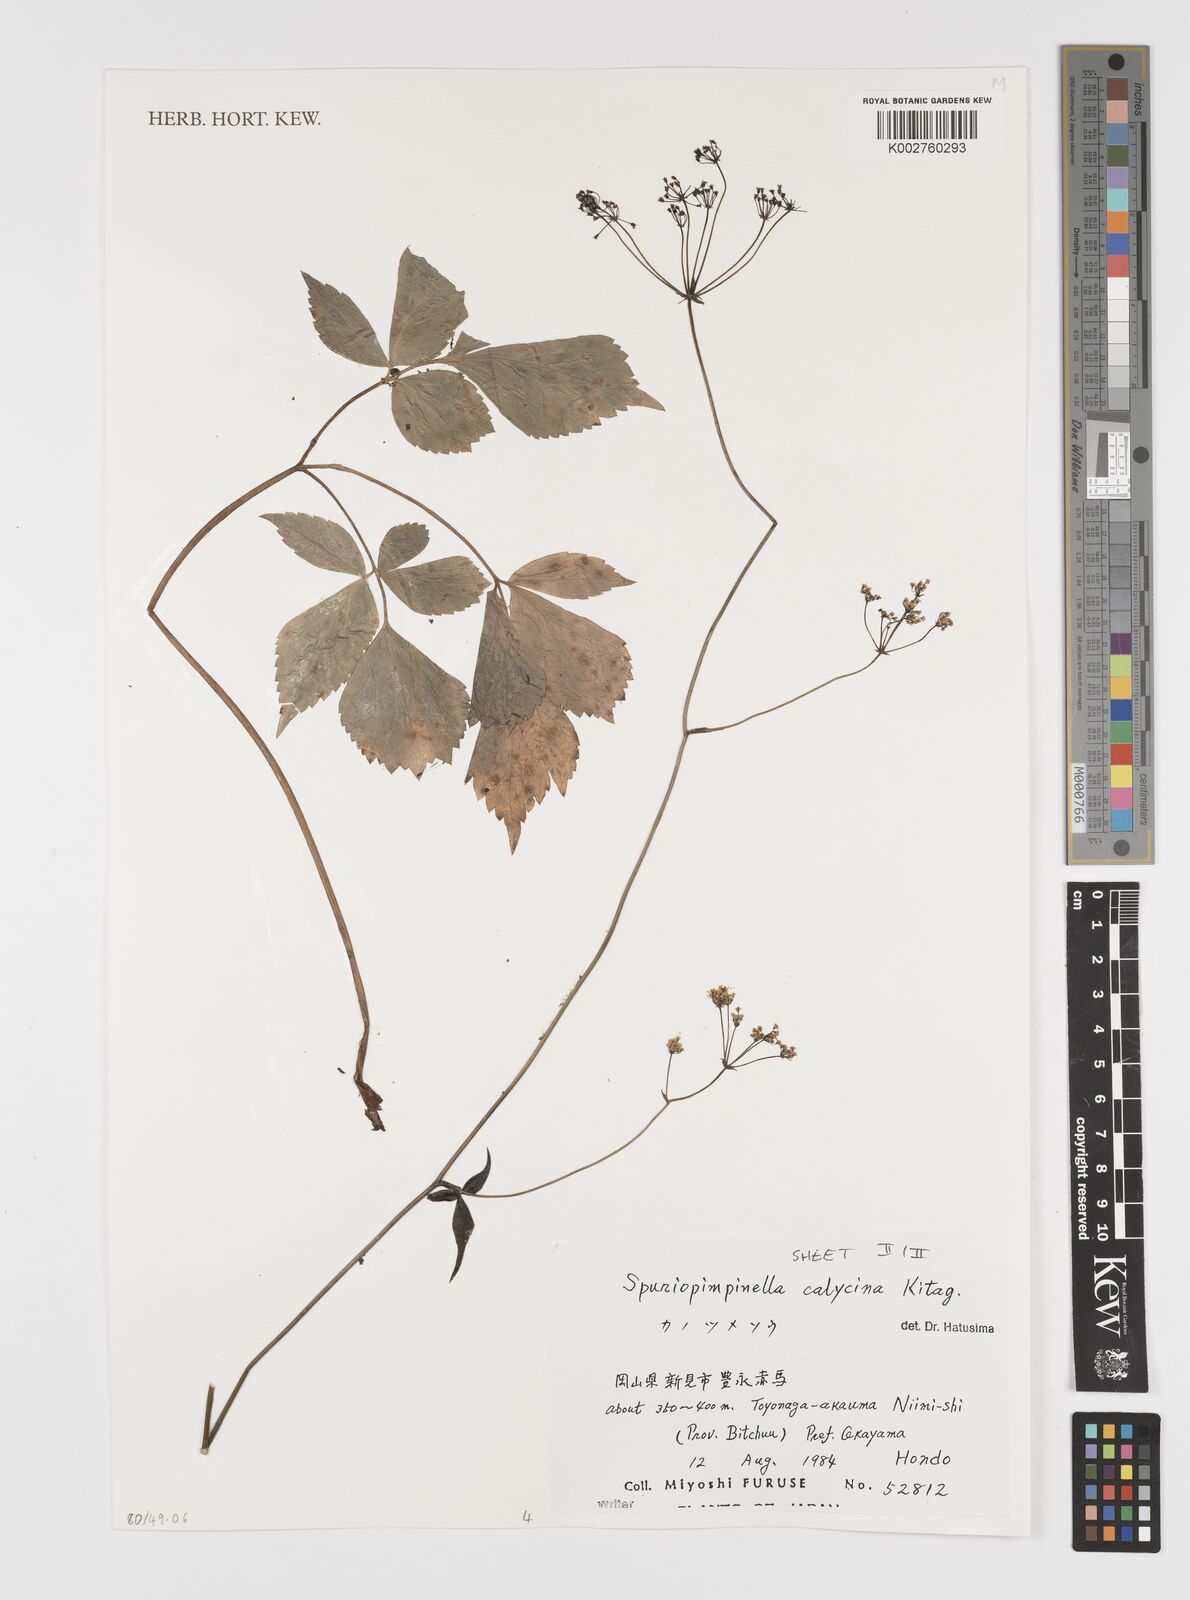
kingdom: Plantae
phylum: Tracheophyta
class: Magnoliopsida
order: Apiales
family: Apiaceae
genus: Spuriopimpinella
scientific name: Spuriopimpinella calycina
